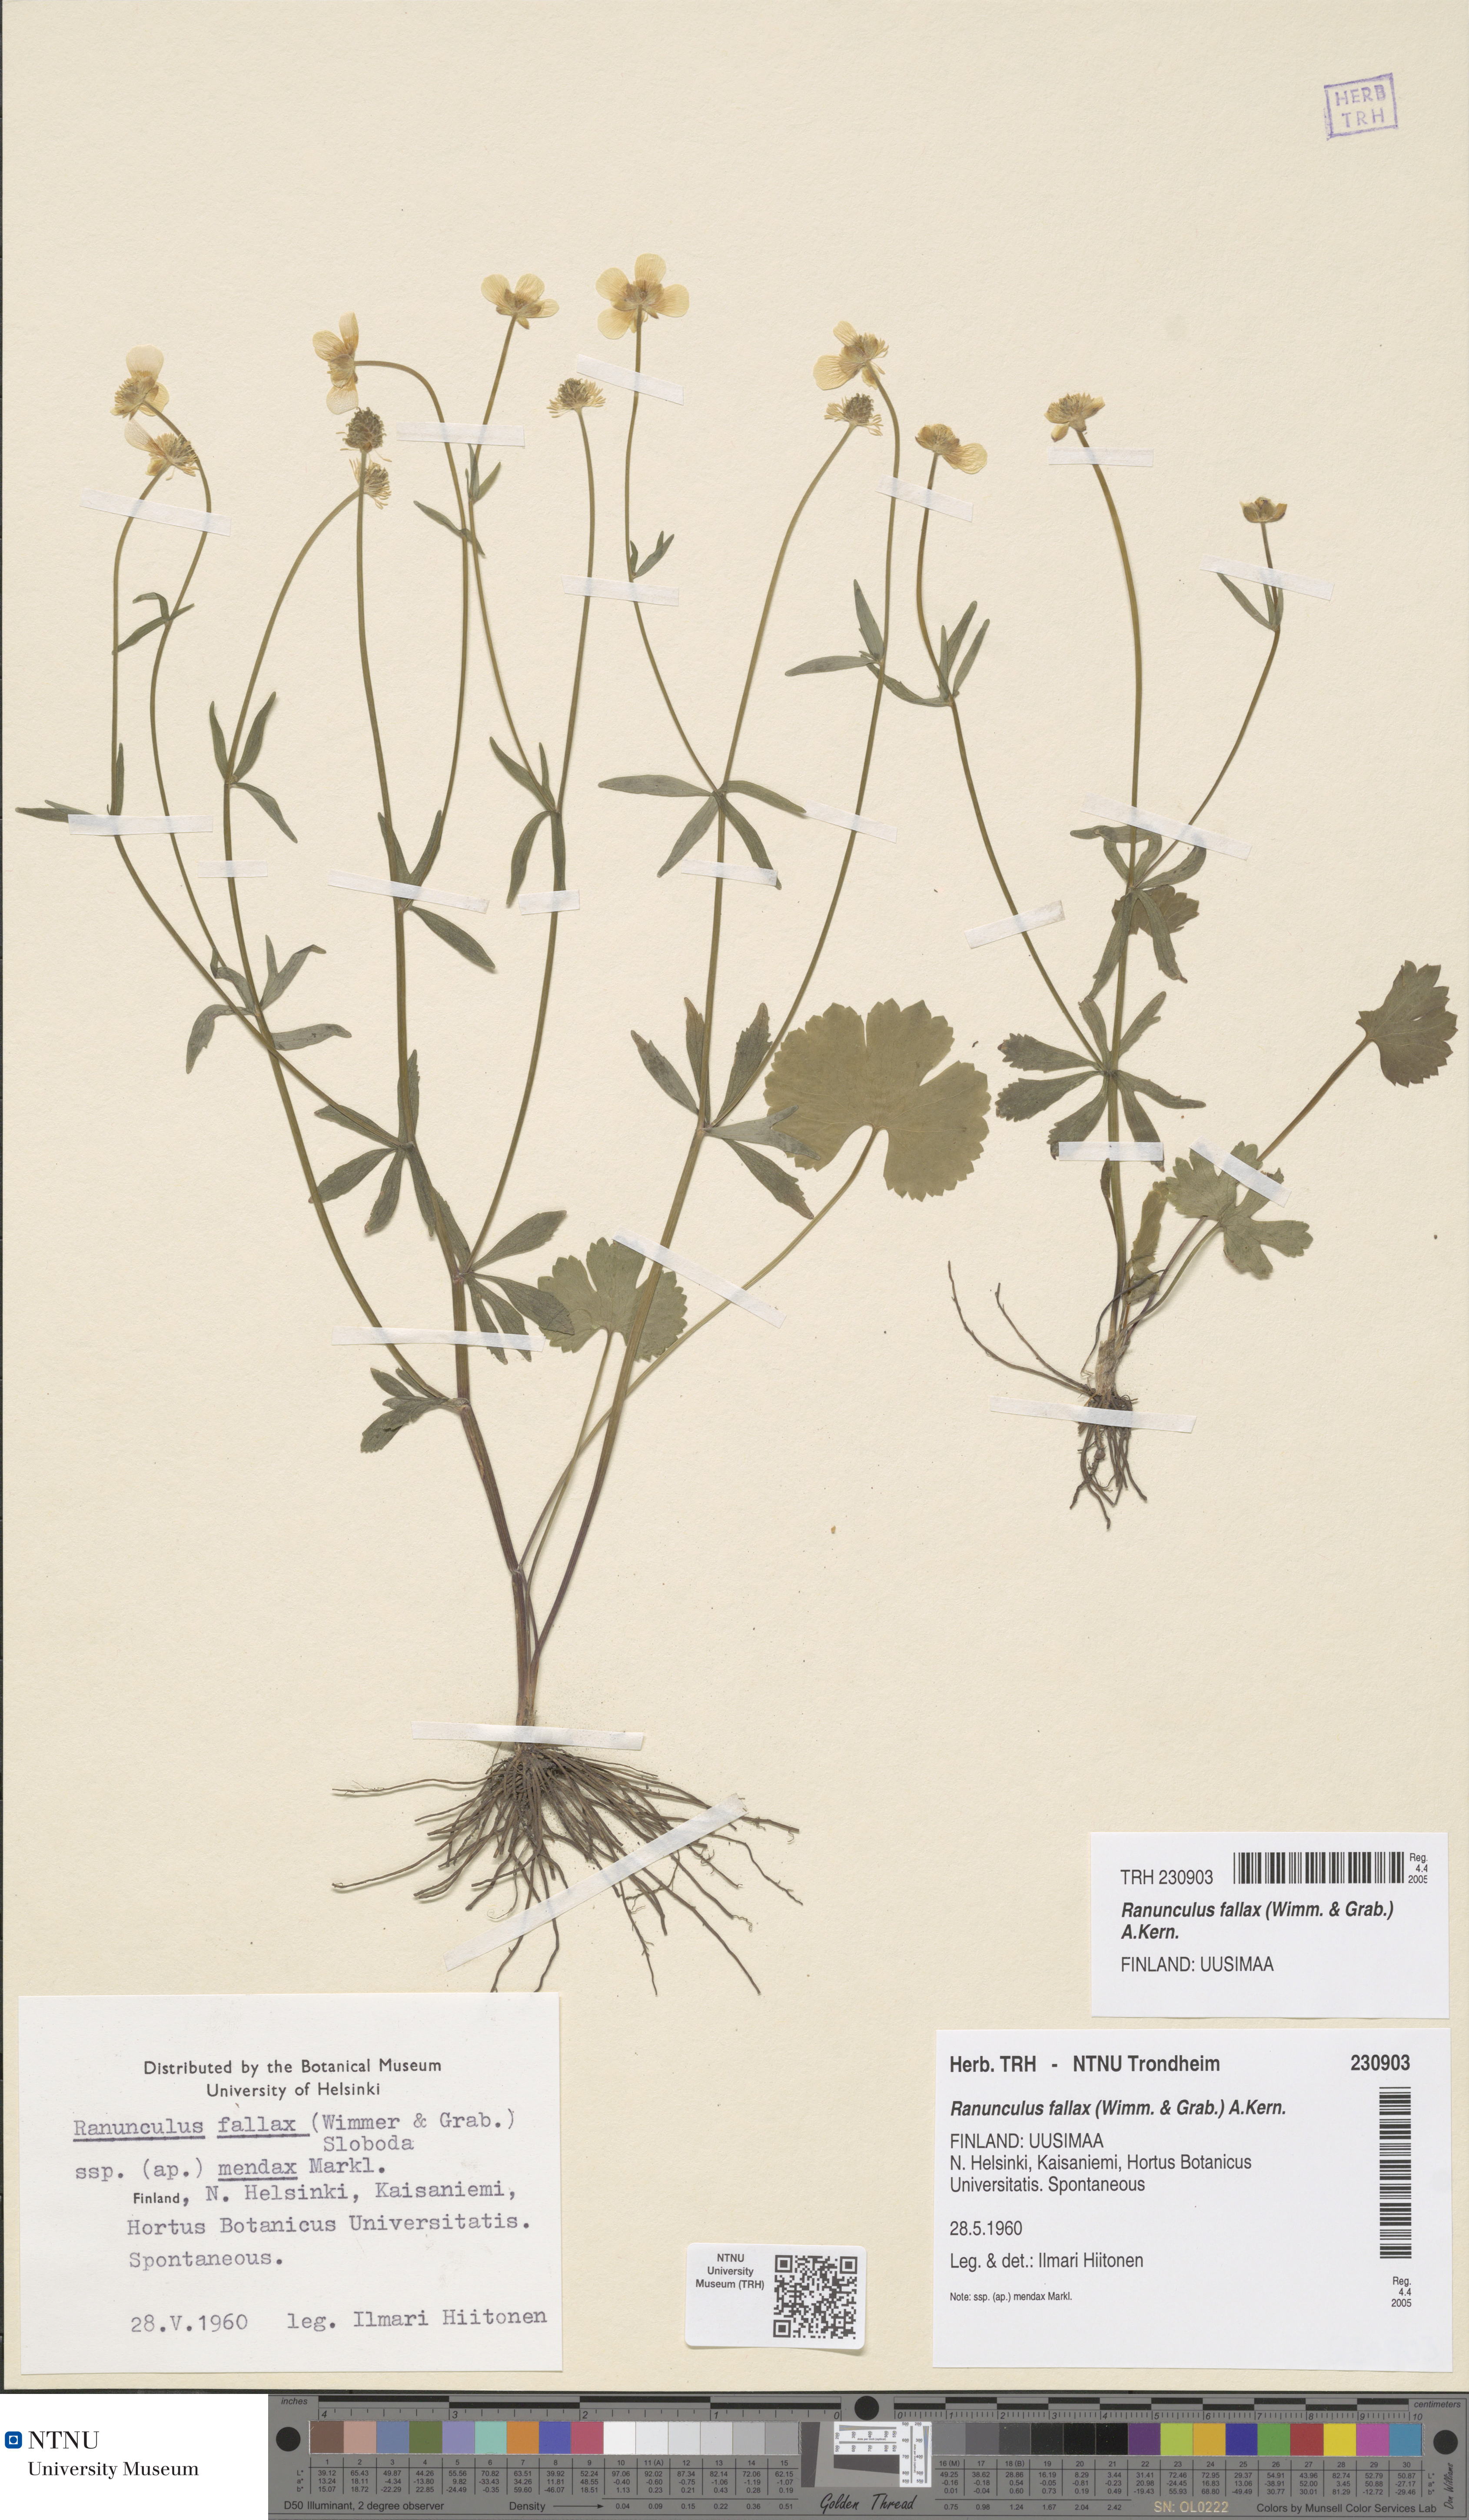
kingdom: Plantae
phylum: Tracheophyta
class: Magnoliopsida
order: Ranunculales
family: Ranunculaceae
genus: Ranunculus
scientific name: Ranunculus fallax
